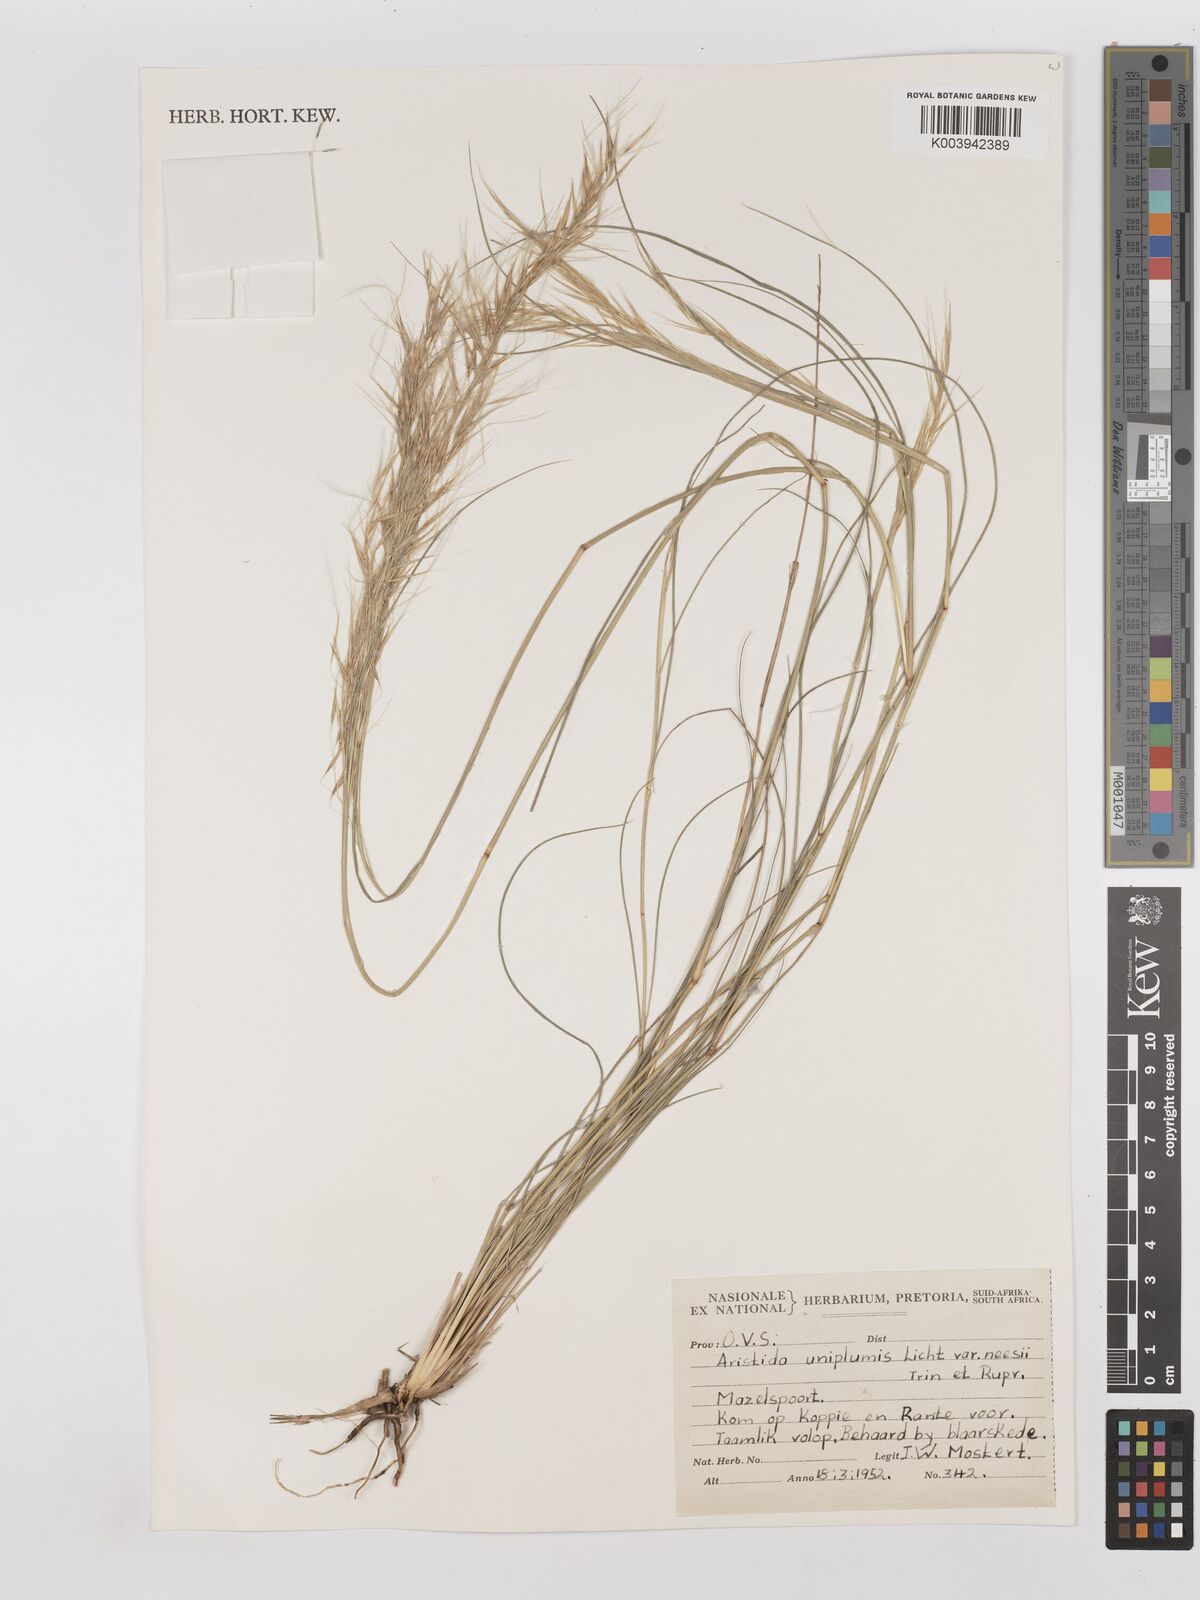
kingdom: Plantae
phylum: Tracheophyta
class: Liliopsida
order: Poales
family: Poaceae
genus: Stipagrostis
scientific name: Stipagrostis uniplumis
